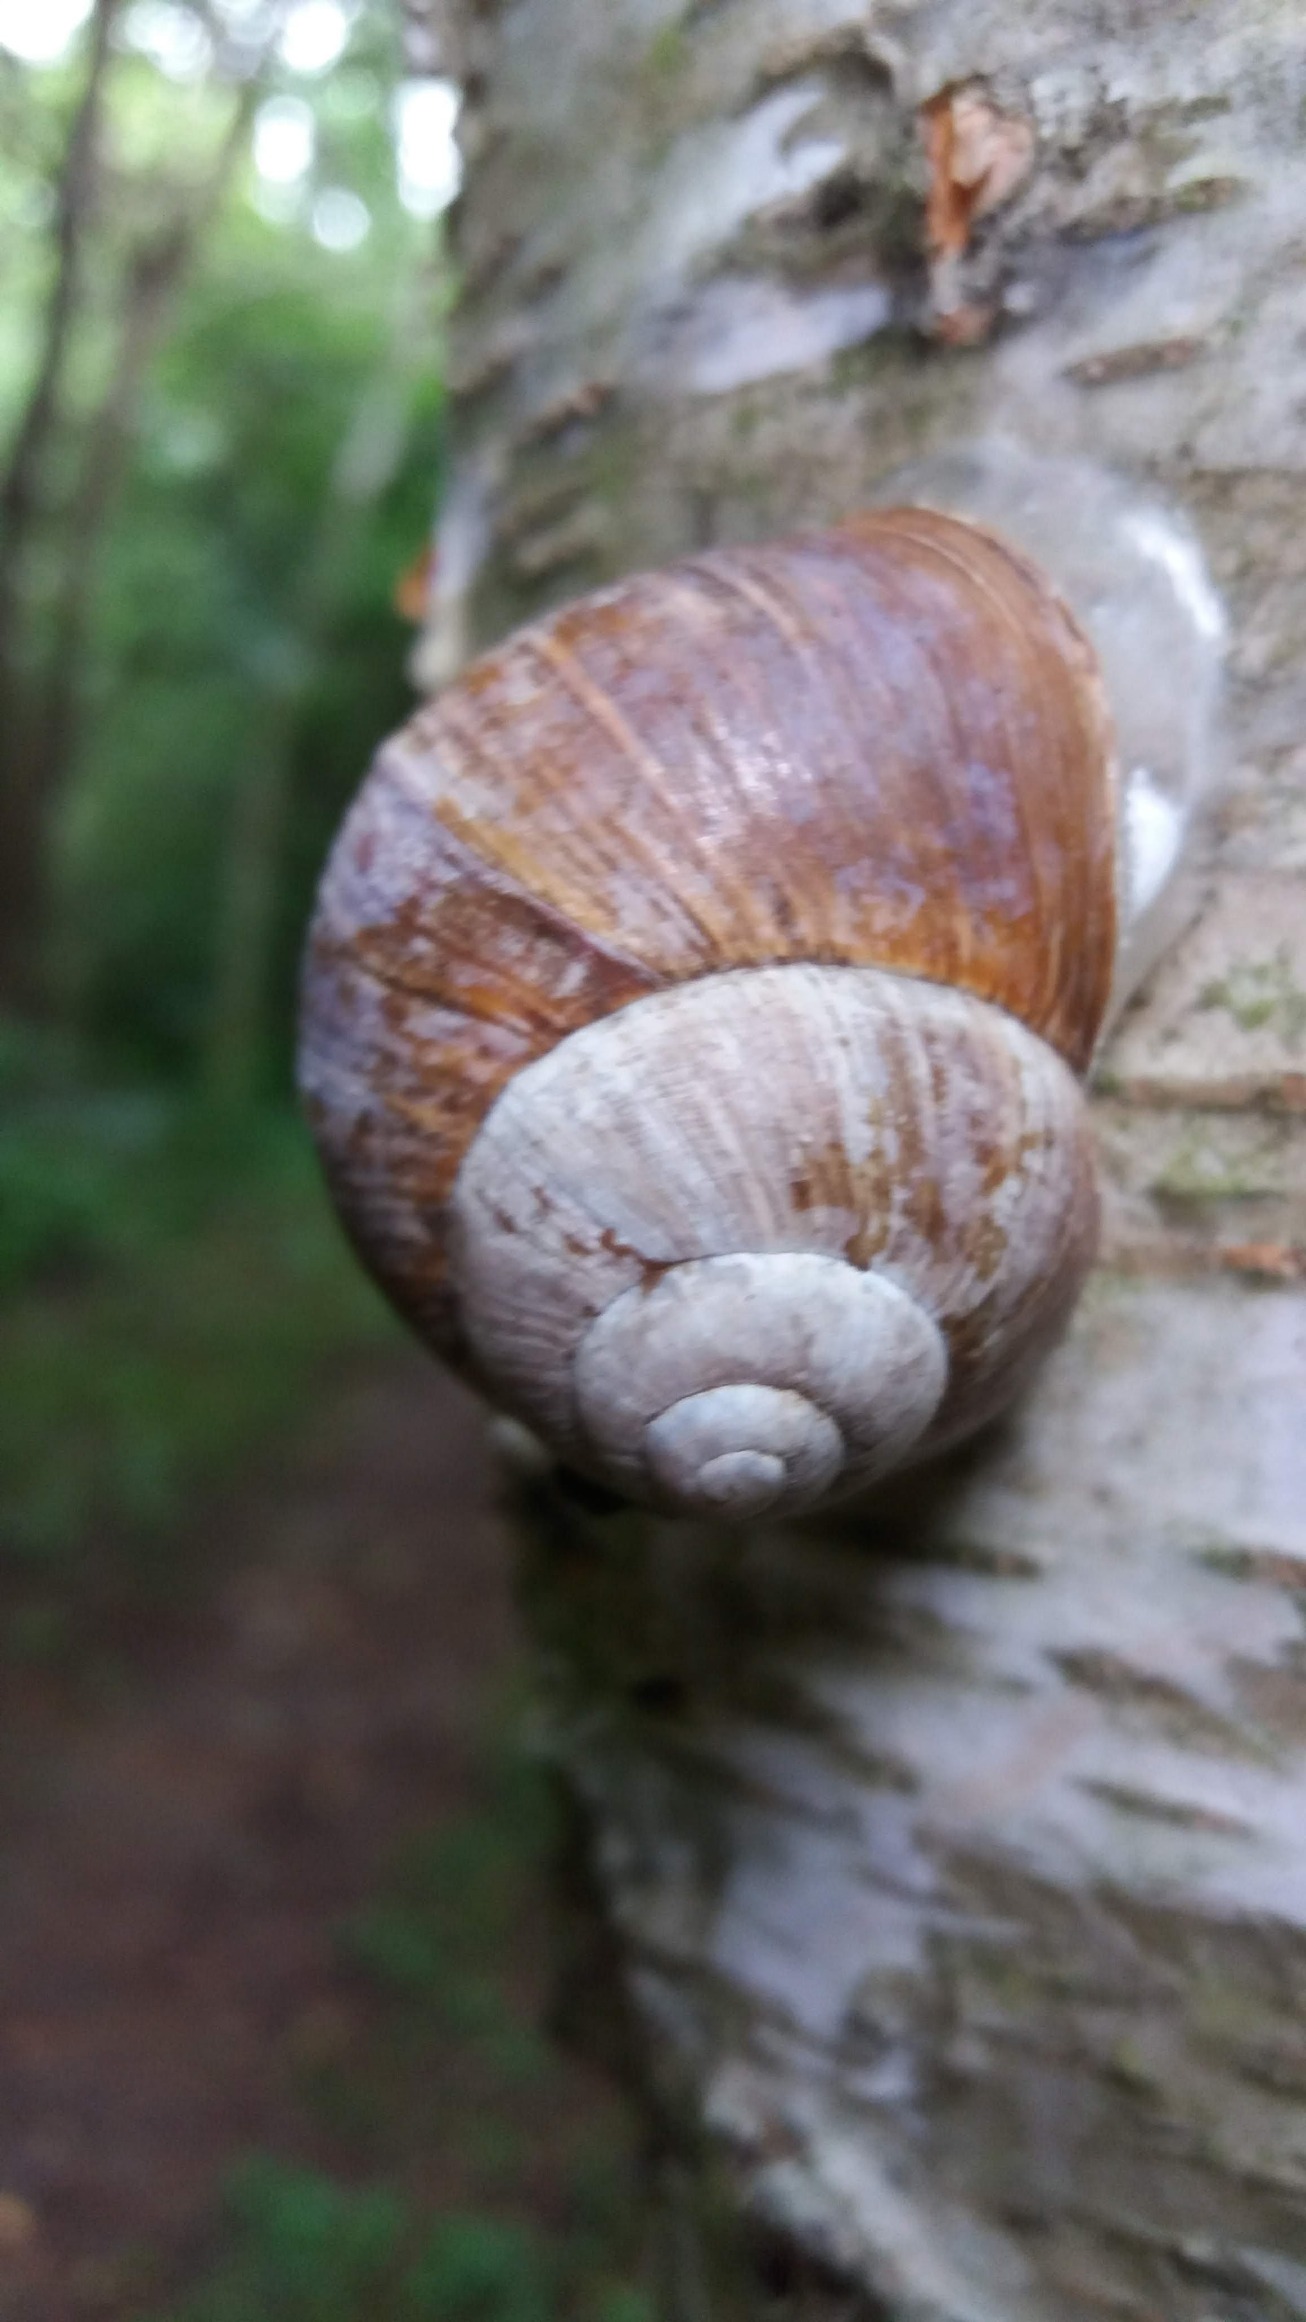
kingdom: Animalia
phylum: Mollusca
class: Gastropoda
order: Stylommatophora
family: Helicidae
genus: Helix
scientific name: Helix pomatia
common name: Vinbjergsnegl
